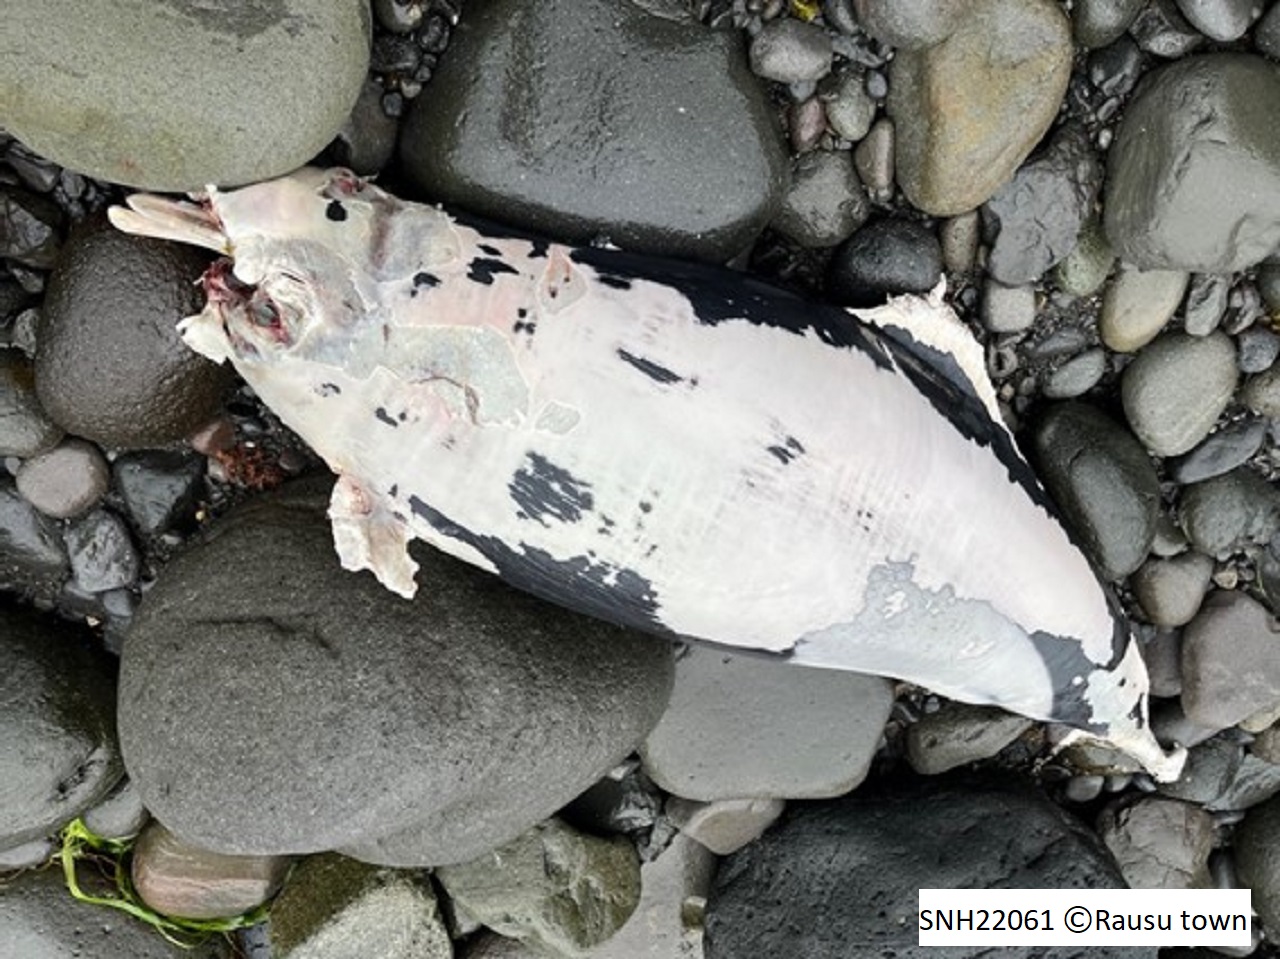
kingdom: Animalia
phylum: Chordata
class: Mammalia
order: Cetacea
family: Phocoenidae
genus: Phocoenoides
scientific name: Phocoenoides dalli
